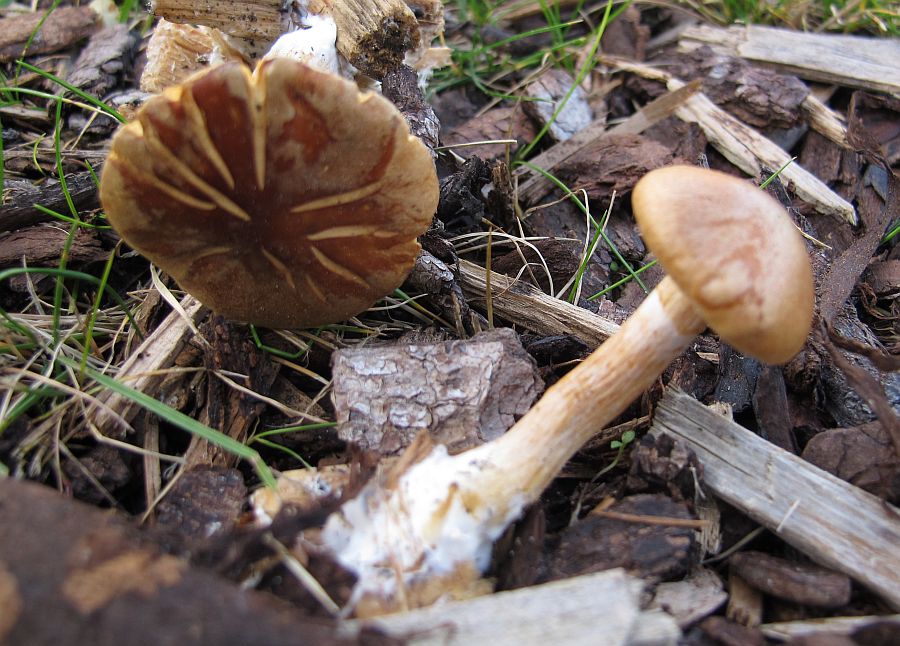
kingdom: Fungi
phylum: Basidiomycota
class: Agaricomycetes
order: Agaricales
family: Hymenogastraceae
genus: Gymnopilus
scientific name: Gymnopilus penetrans
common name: plettet flammehat
